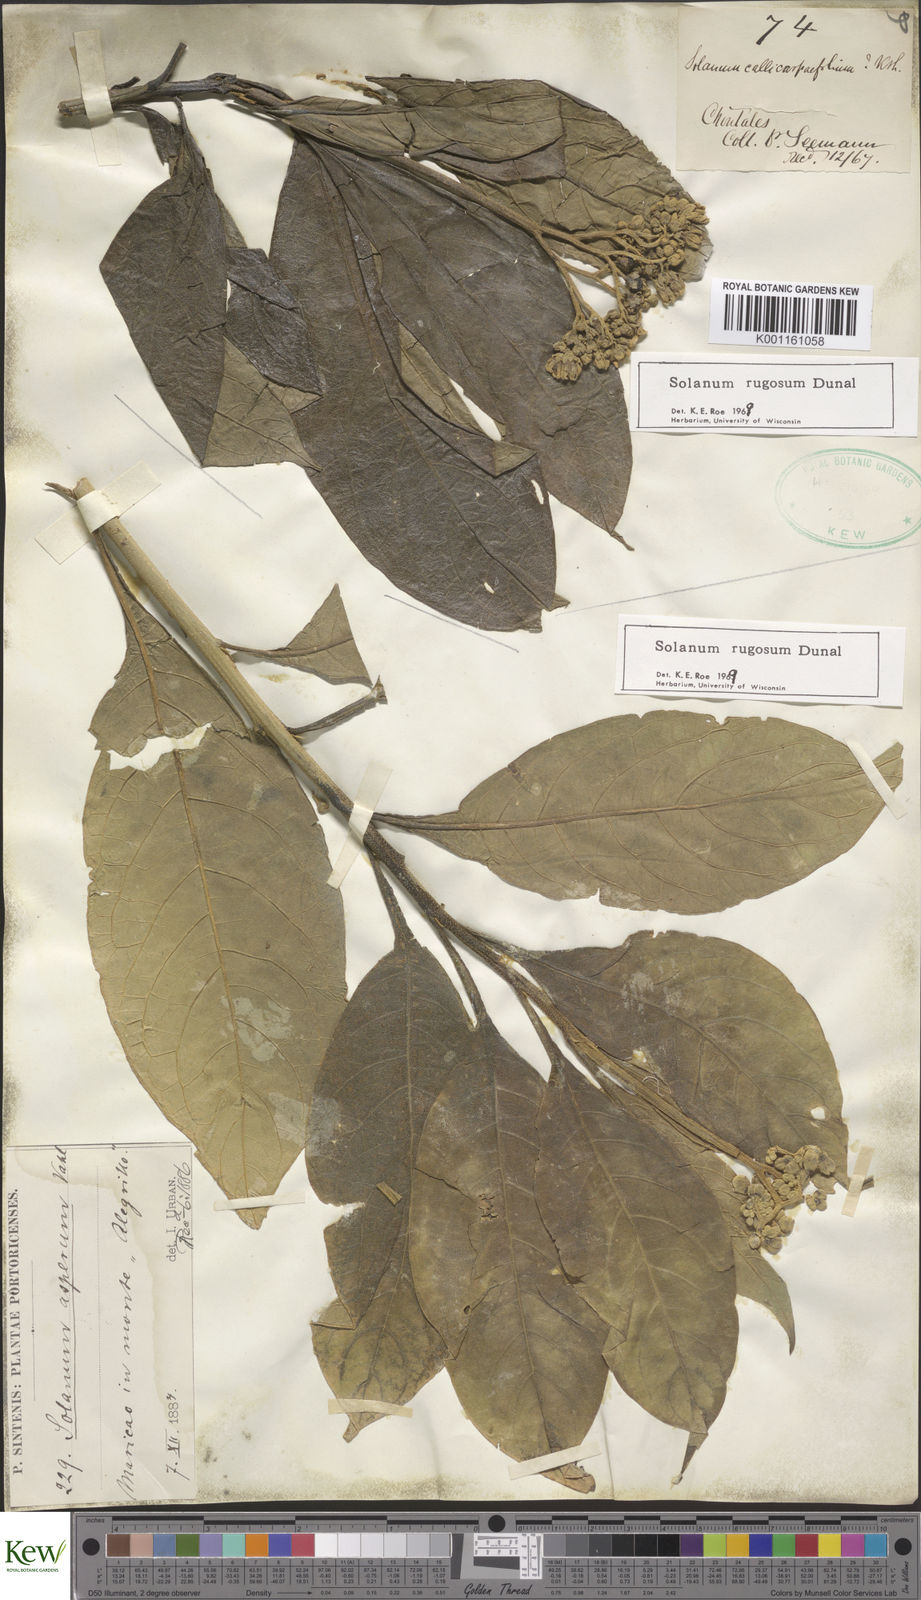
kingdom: Plantae
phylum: Tracheophyta
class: Magnoliopsida
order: Solanales
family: Solanaceae
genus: Solanum
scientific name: Solanum rugosum
